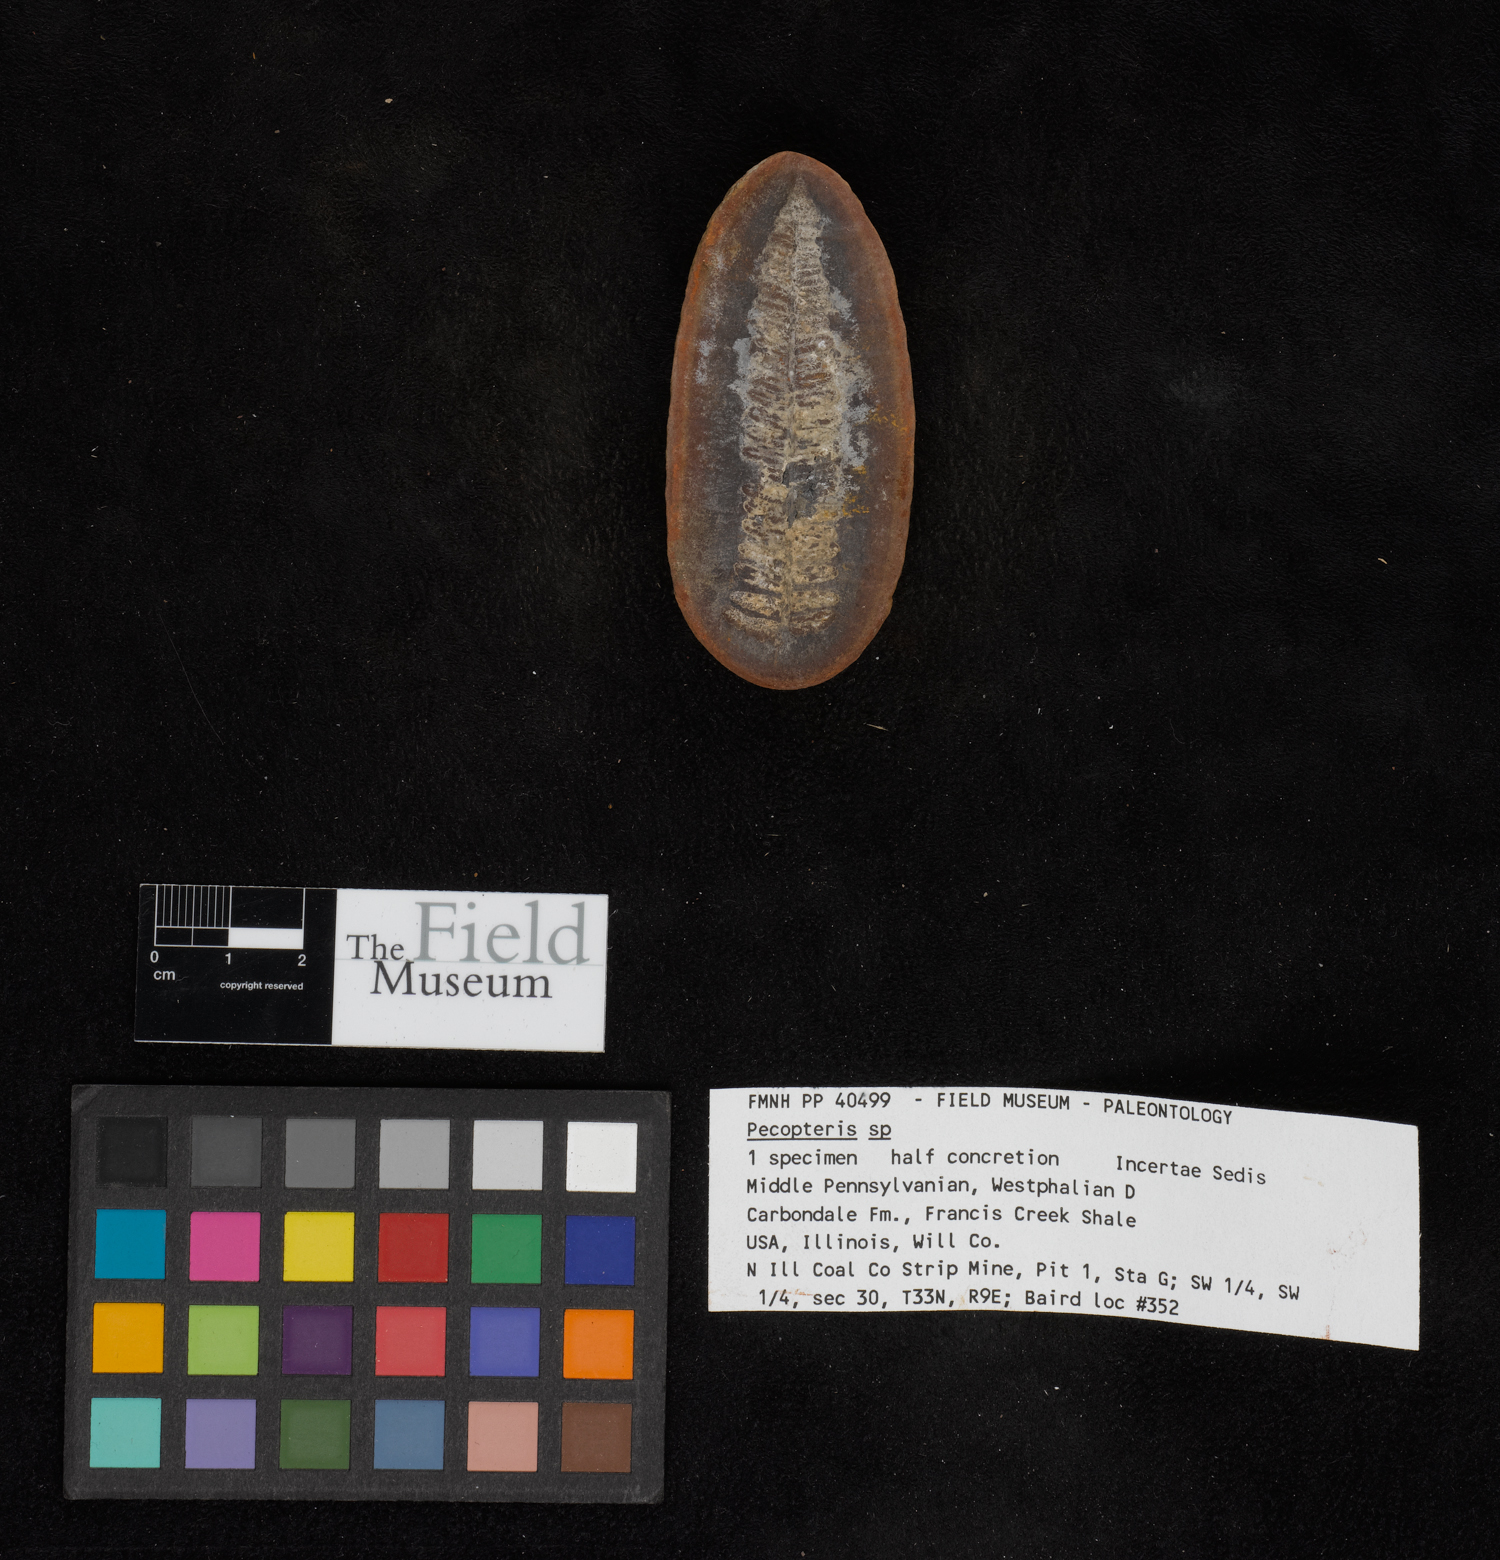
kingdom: Plantae
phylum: Tracheophyta
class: Polypodiopsida
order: Marattiales
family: Asterothecaceae
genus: Pecopteris
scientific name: Pecopteris
